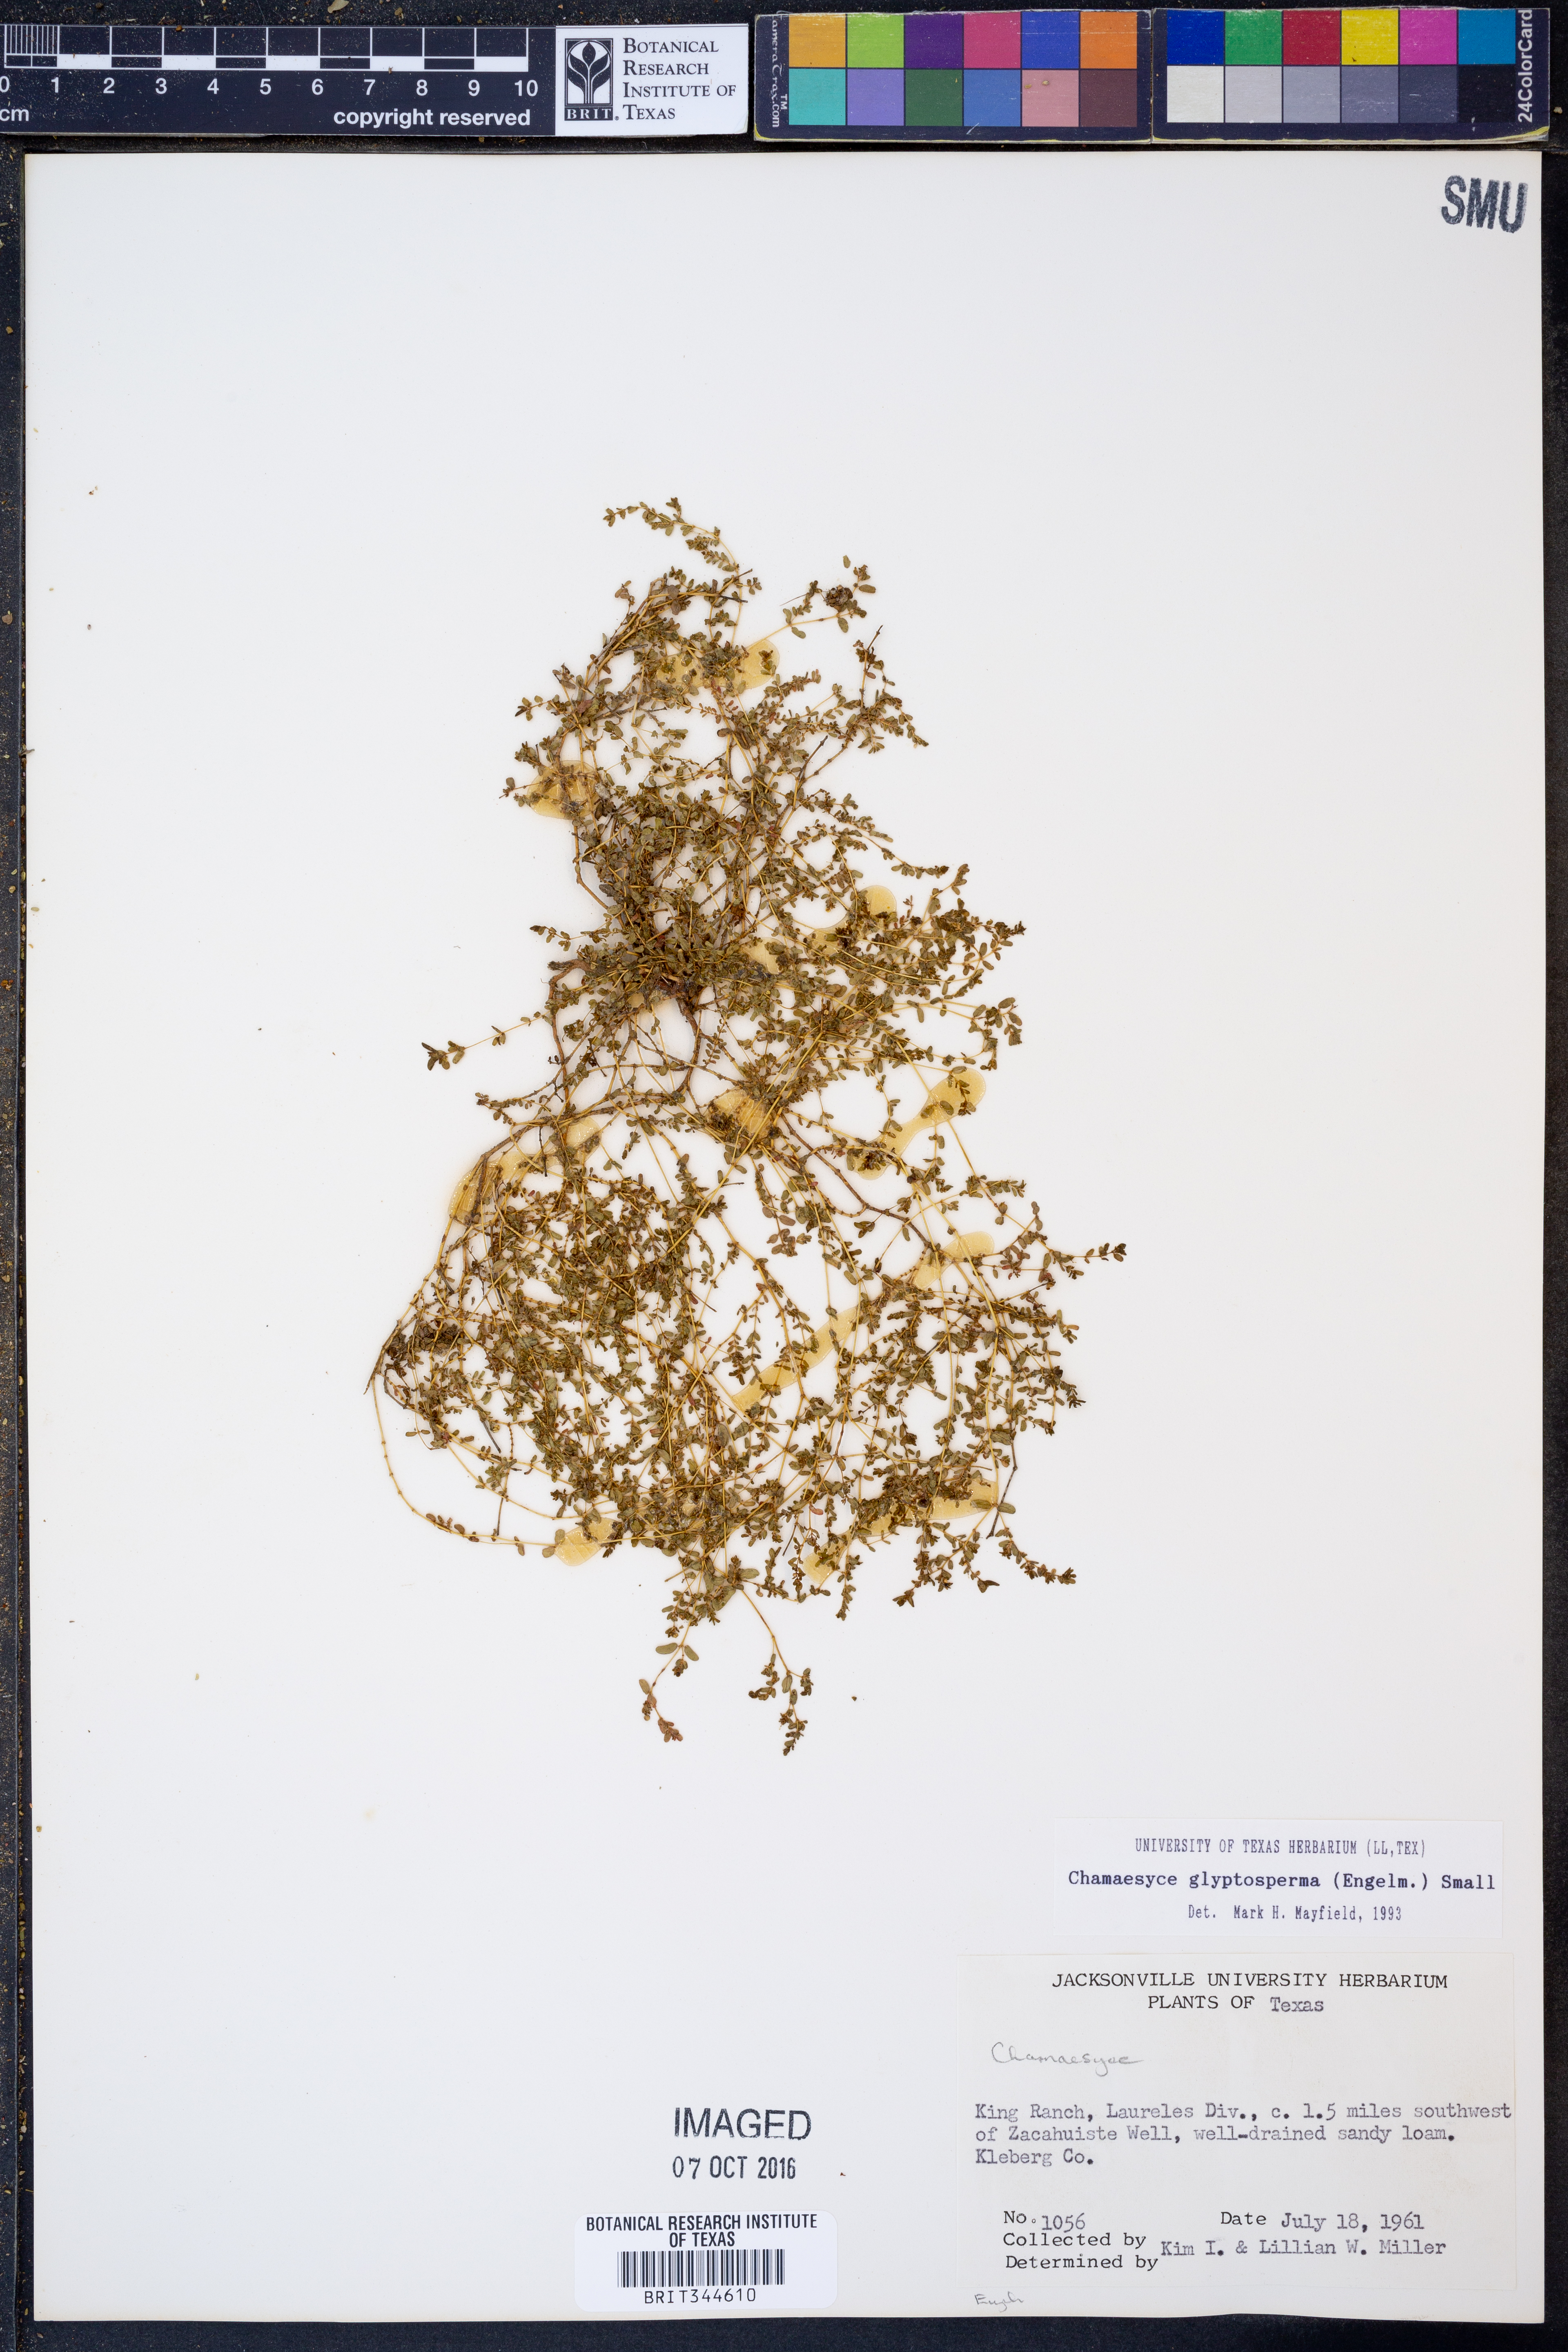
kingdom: Plantae
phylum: Tracheophyta
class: Magnoliopsida
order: Malpighiales
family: Euphorbiaceae
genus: Euphorbia
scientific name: Euphorbia glyptosperma
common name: Corrugate-seeded spurge
